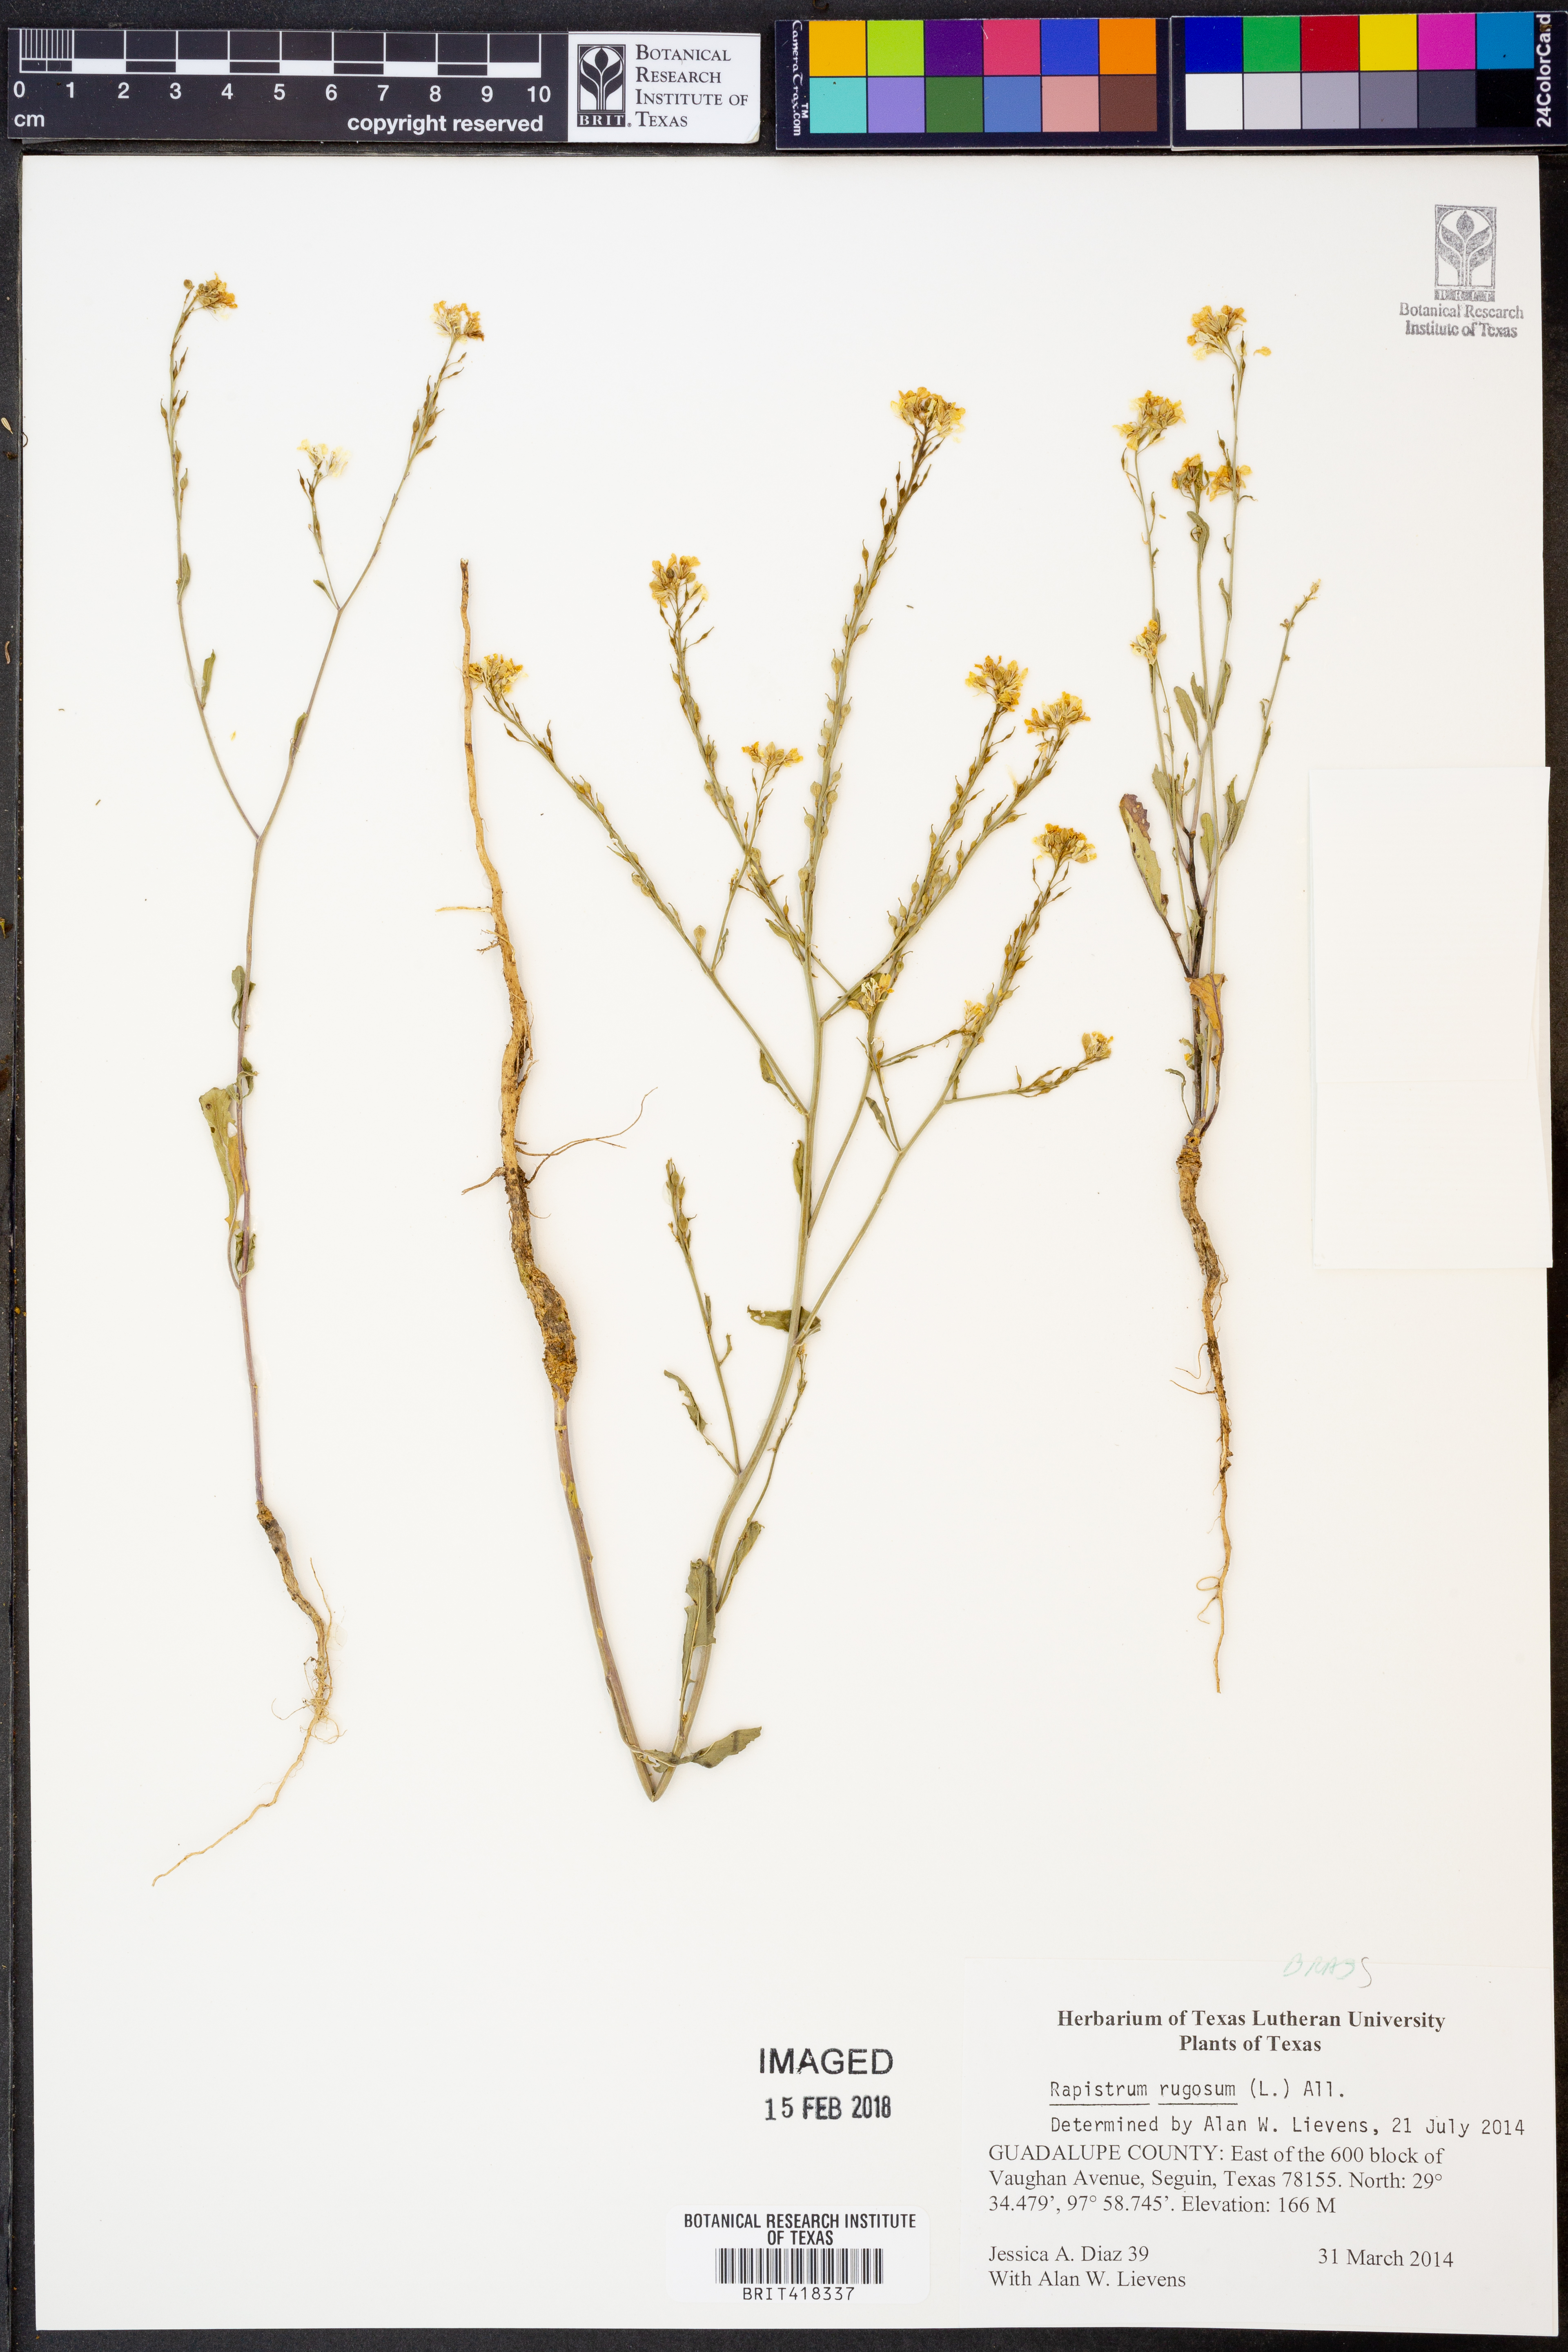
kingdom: Plantae
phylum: Tracheophyta
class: Magnoliopsida
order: Brassicales
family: Brassicaceae
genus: Rapistrum
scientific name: Rapistrum rugosum
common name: Annual bastardcabbage
